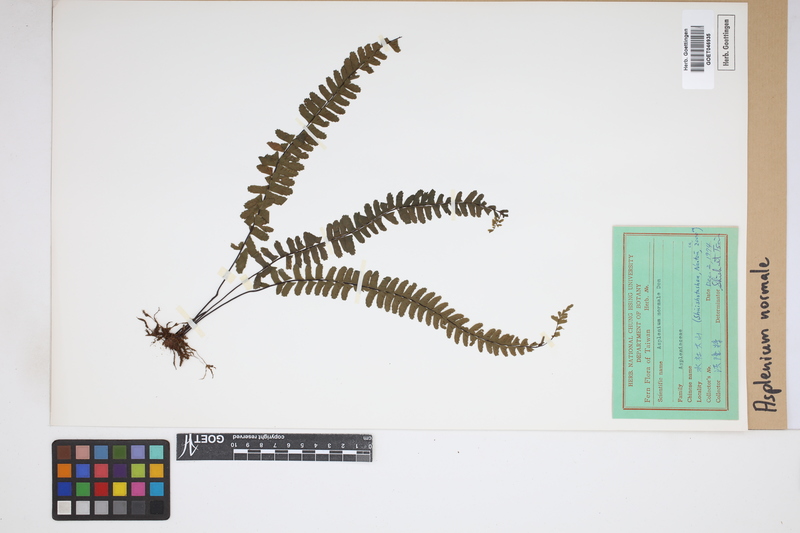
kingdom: Plantae
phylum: Tracheophyta
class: Polypodiopsida
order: Polypodiales
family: Aspleniaceae
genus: Asplenium
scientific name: Asplenium normale
